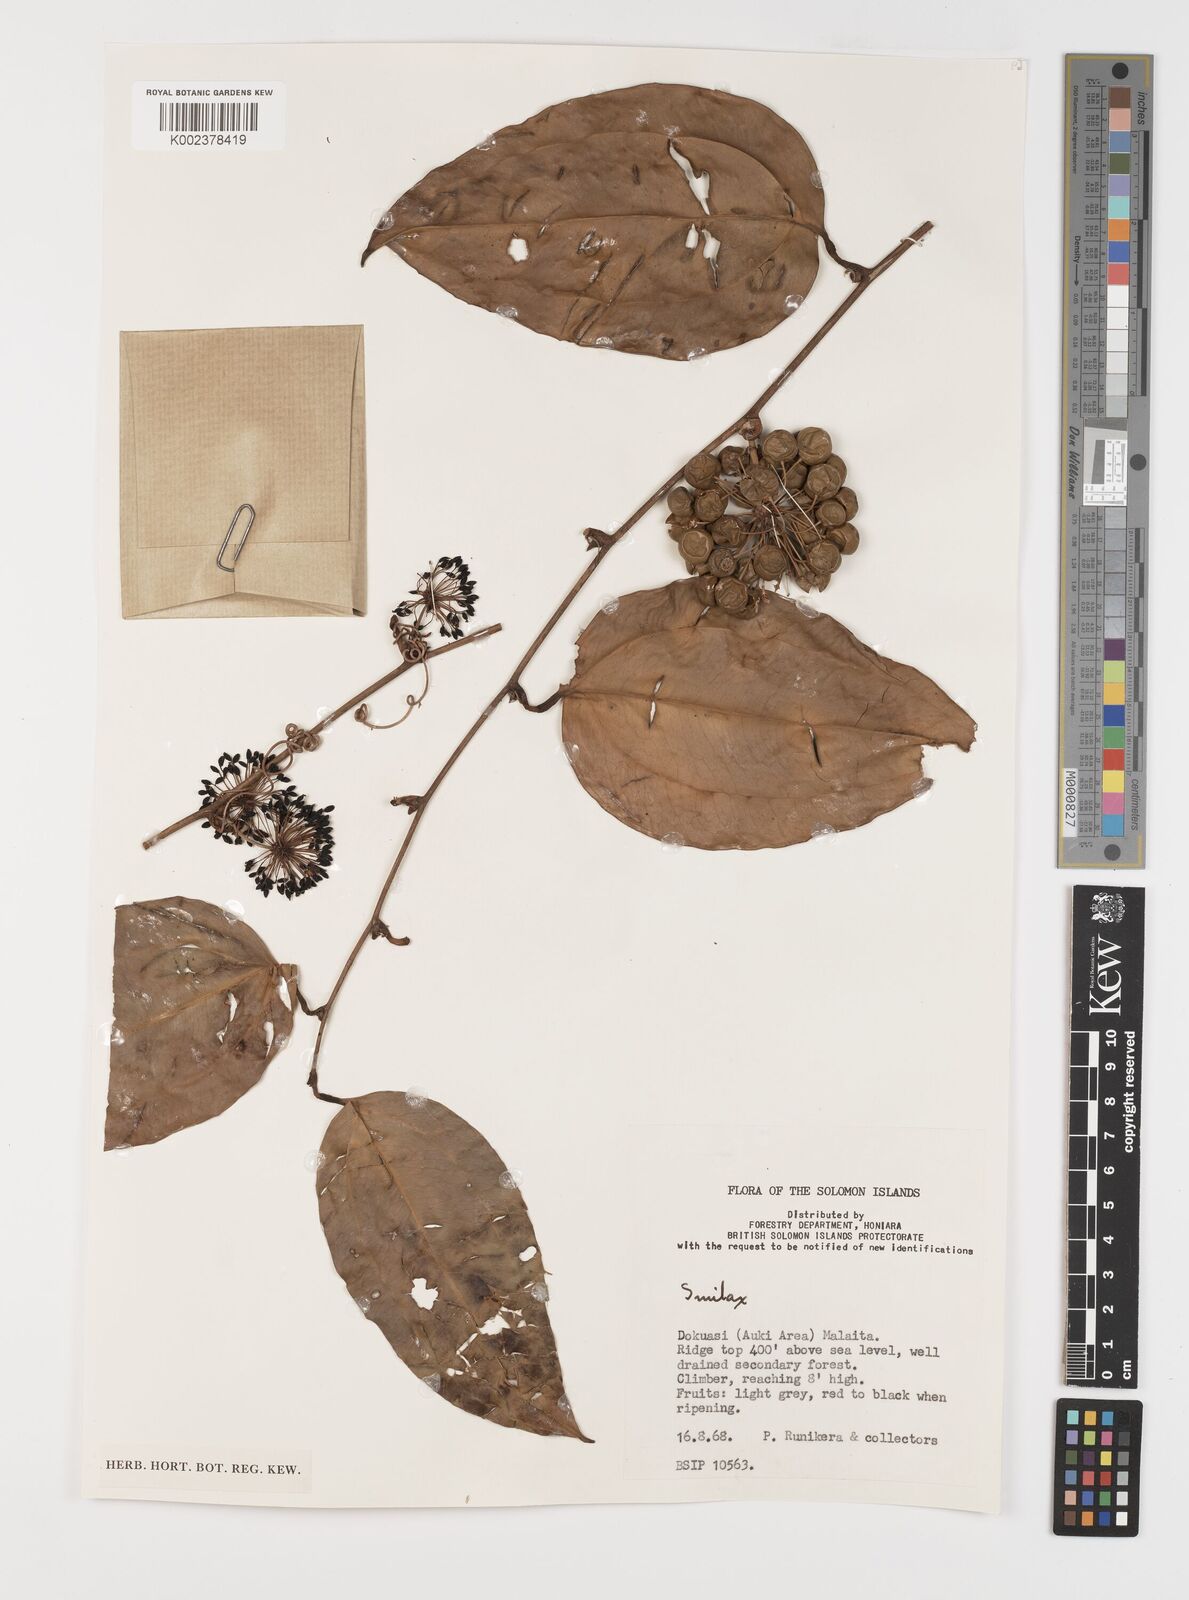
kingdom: Plantae
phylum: Tracheophyta
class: Liliopsida
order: Liliales
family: Smilacaceae
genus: Smilax
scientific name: Smilax
